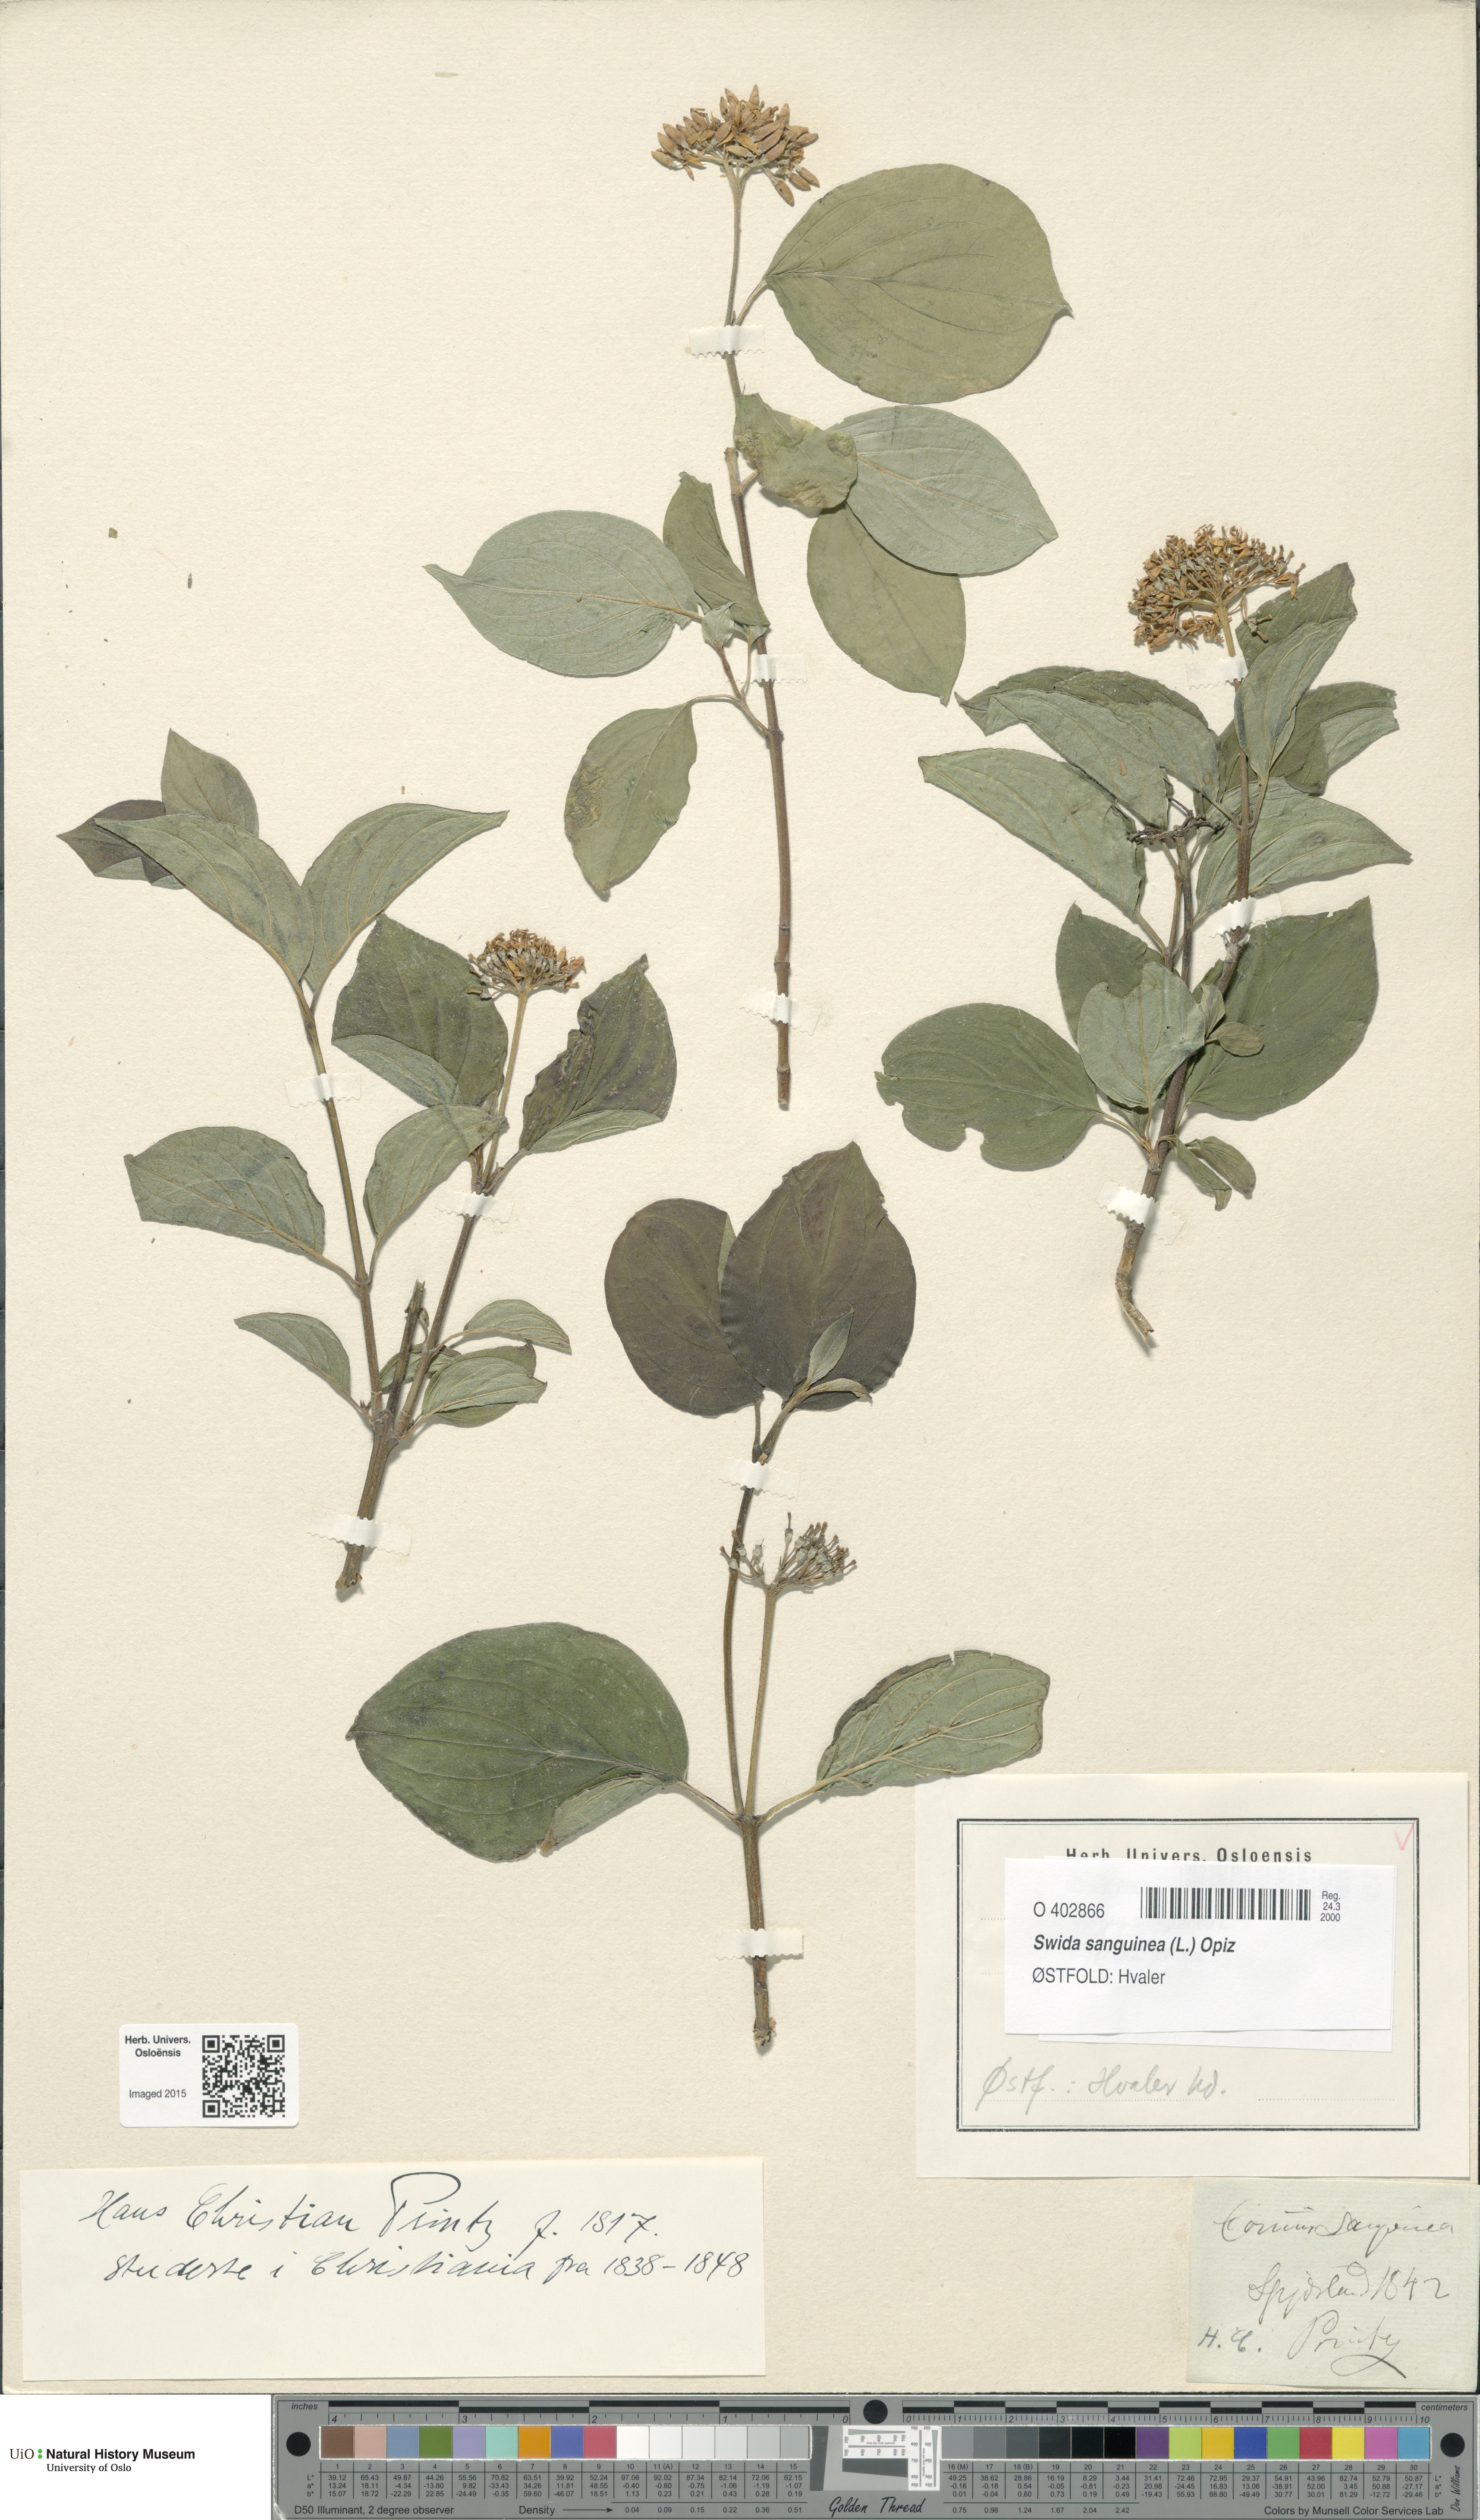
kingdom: Plantae
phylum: Tracheophyta
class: Magnoliopsida
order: Cornales
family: Cornaceae
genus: Cornus
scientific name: Cornus sanguinea
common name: Dogwood
